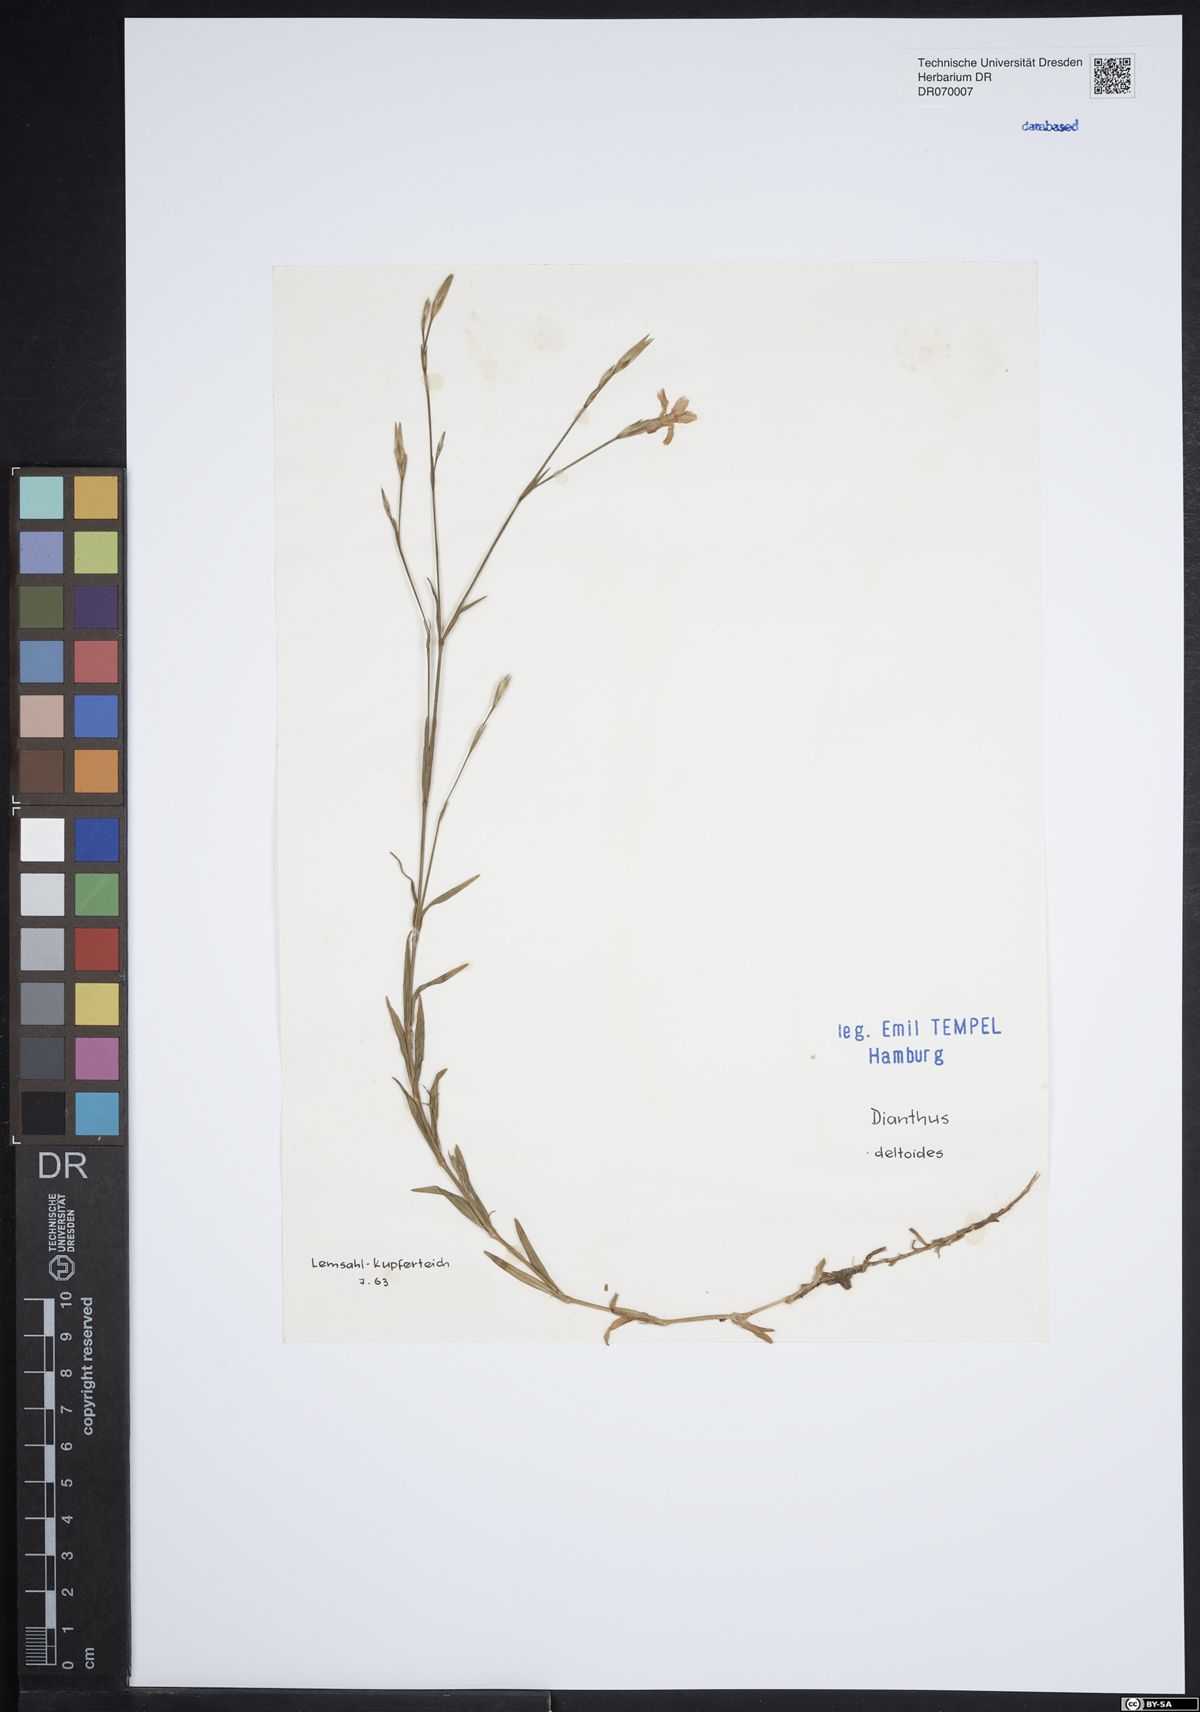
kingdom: Plantae
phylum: Tracheophyta
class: Magnoliopsida
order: Caryophyllales
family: Caryophyllaceae
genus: Dianthus
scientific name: Dianthus deltoides
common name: Maiden pink
